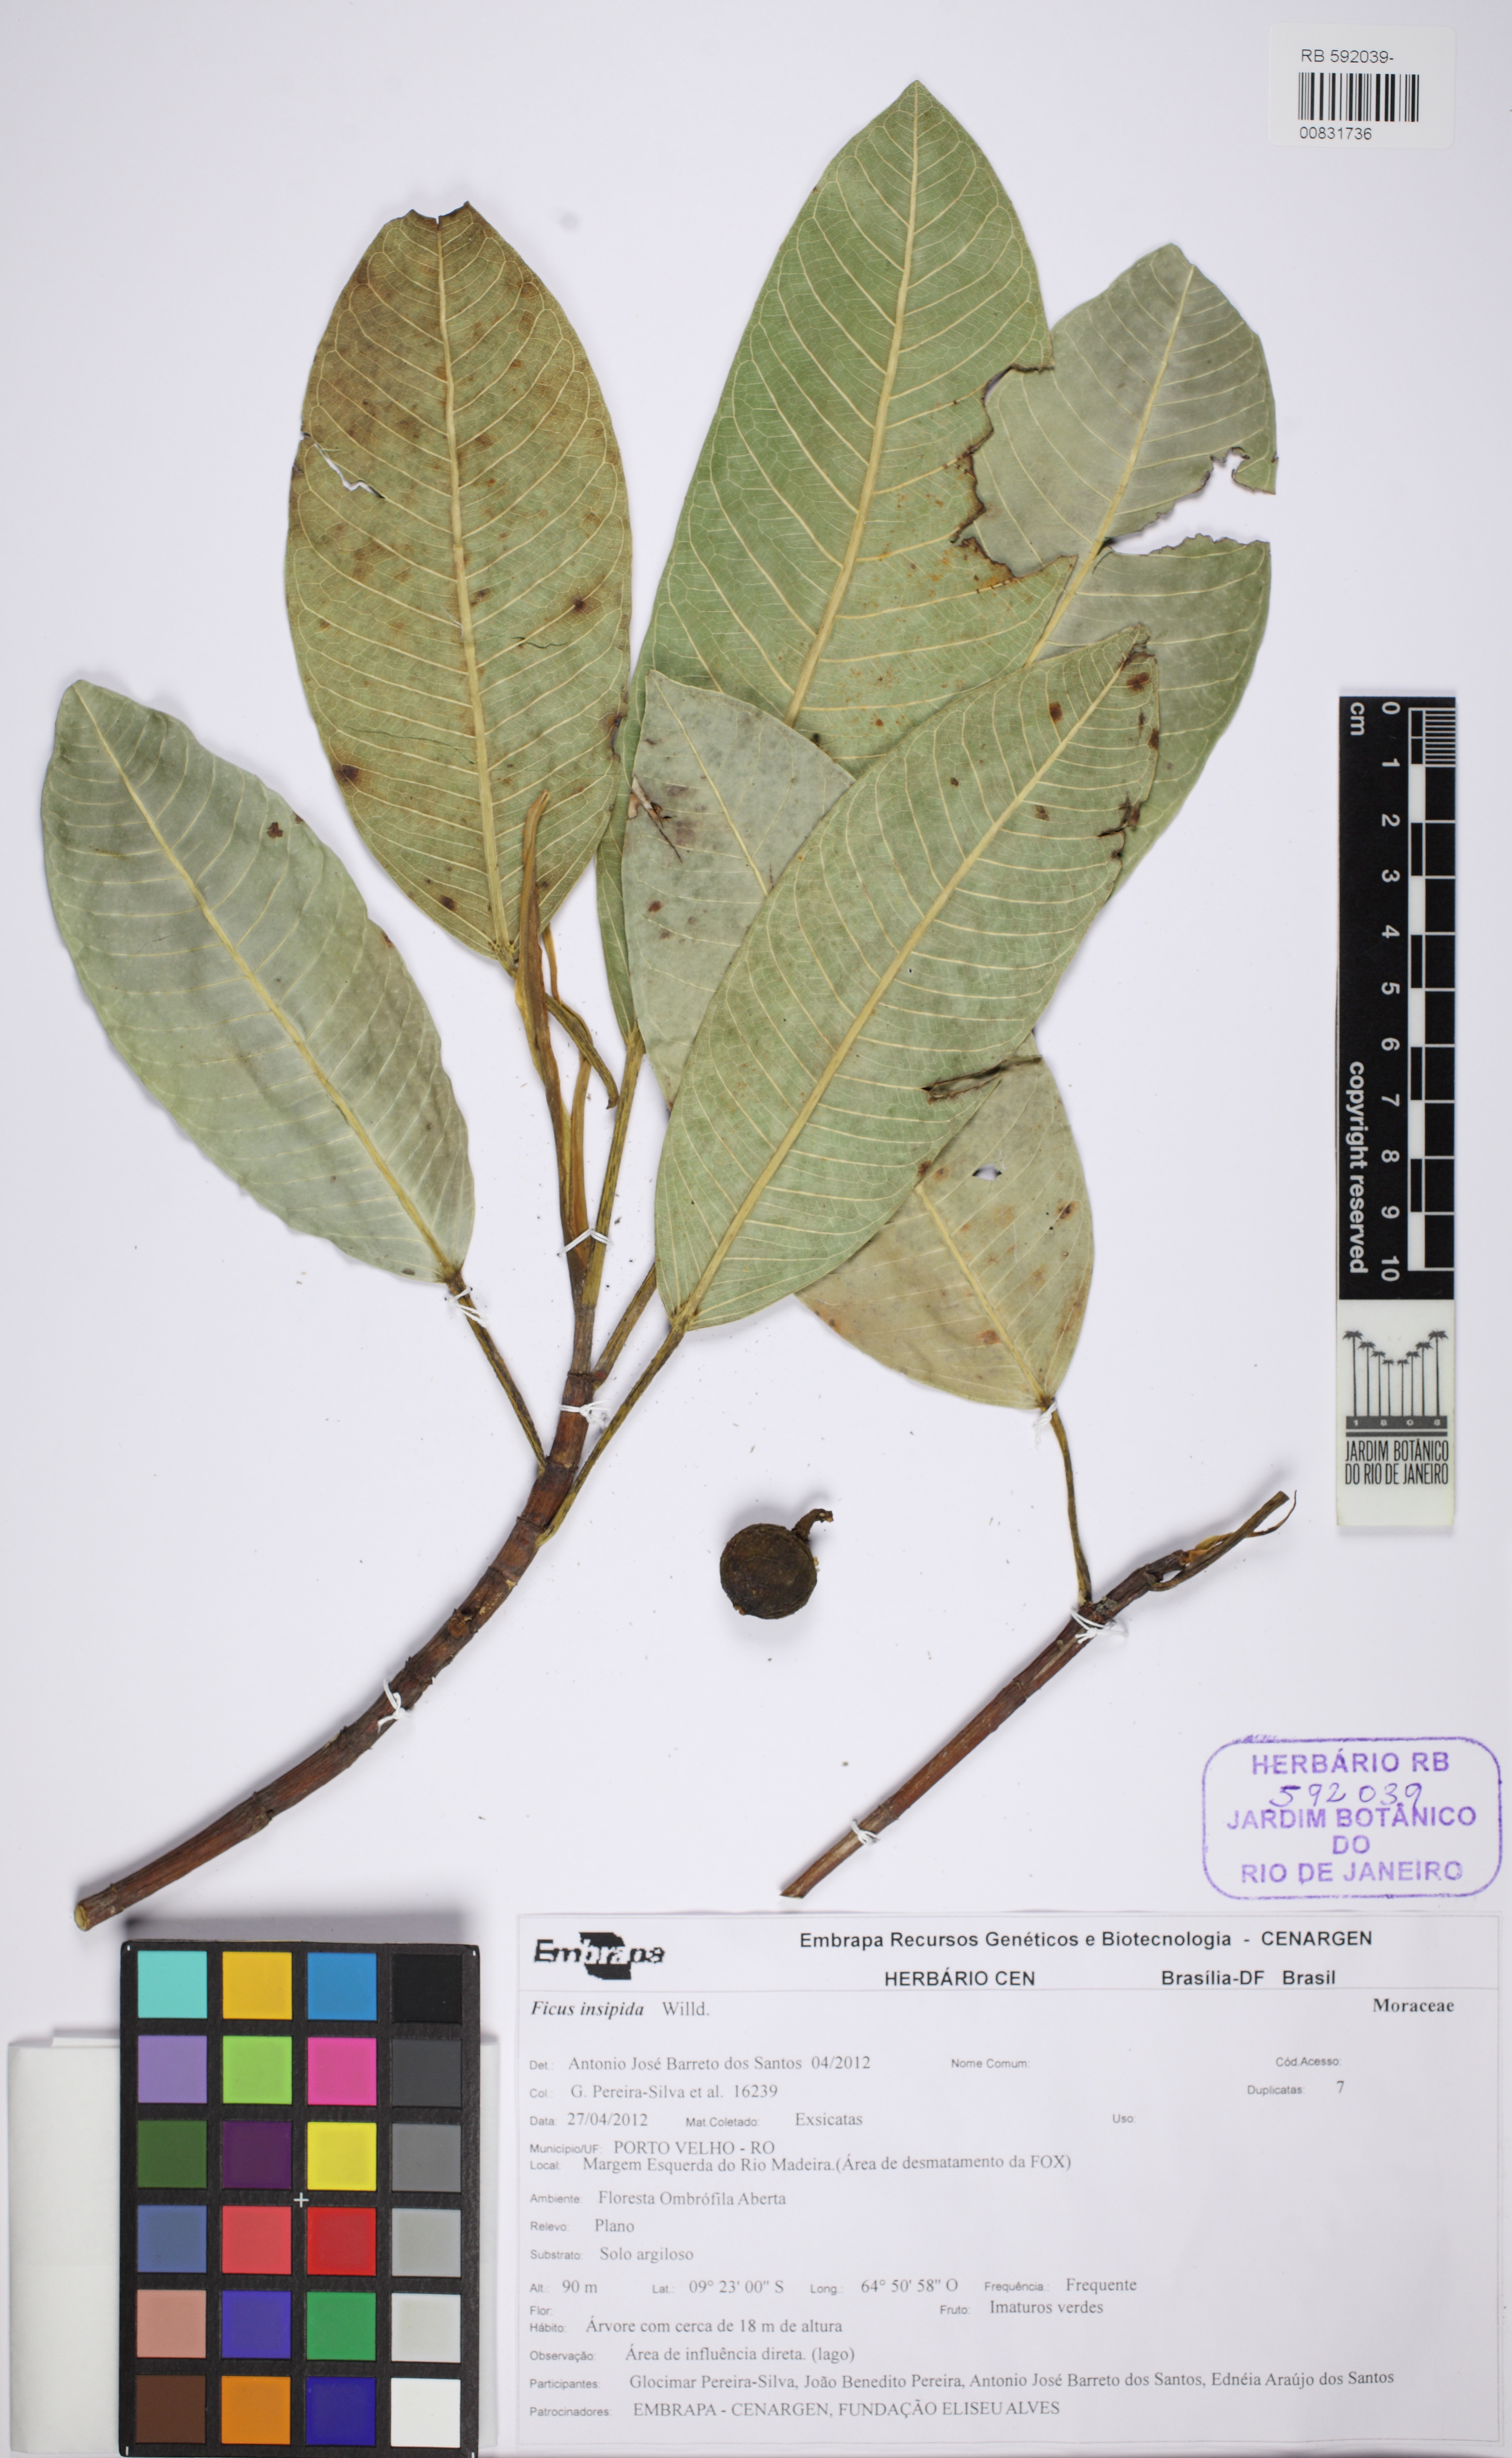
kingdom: Plantae
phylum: Tracheophyta
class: Magnoliopsida
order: Rosales
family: Moraceae
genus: Ficus
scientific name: Ficus insipida
